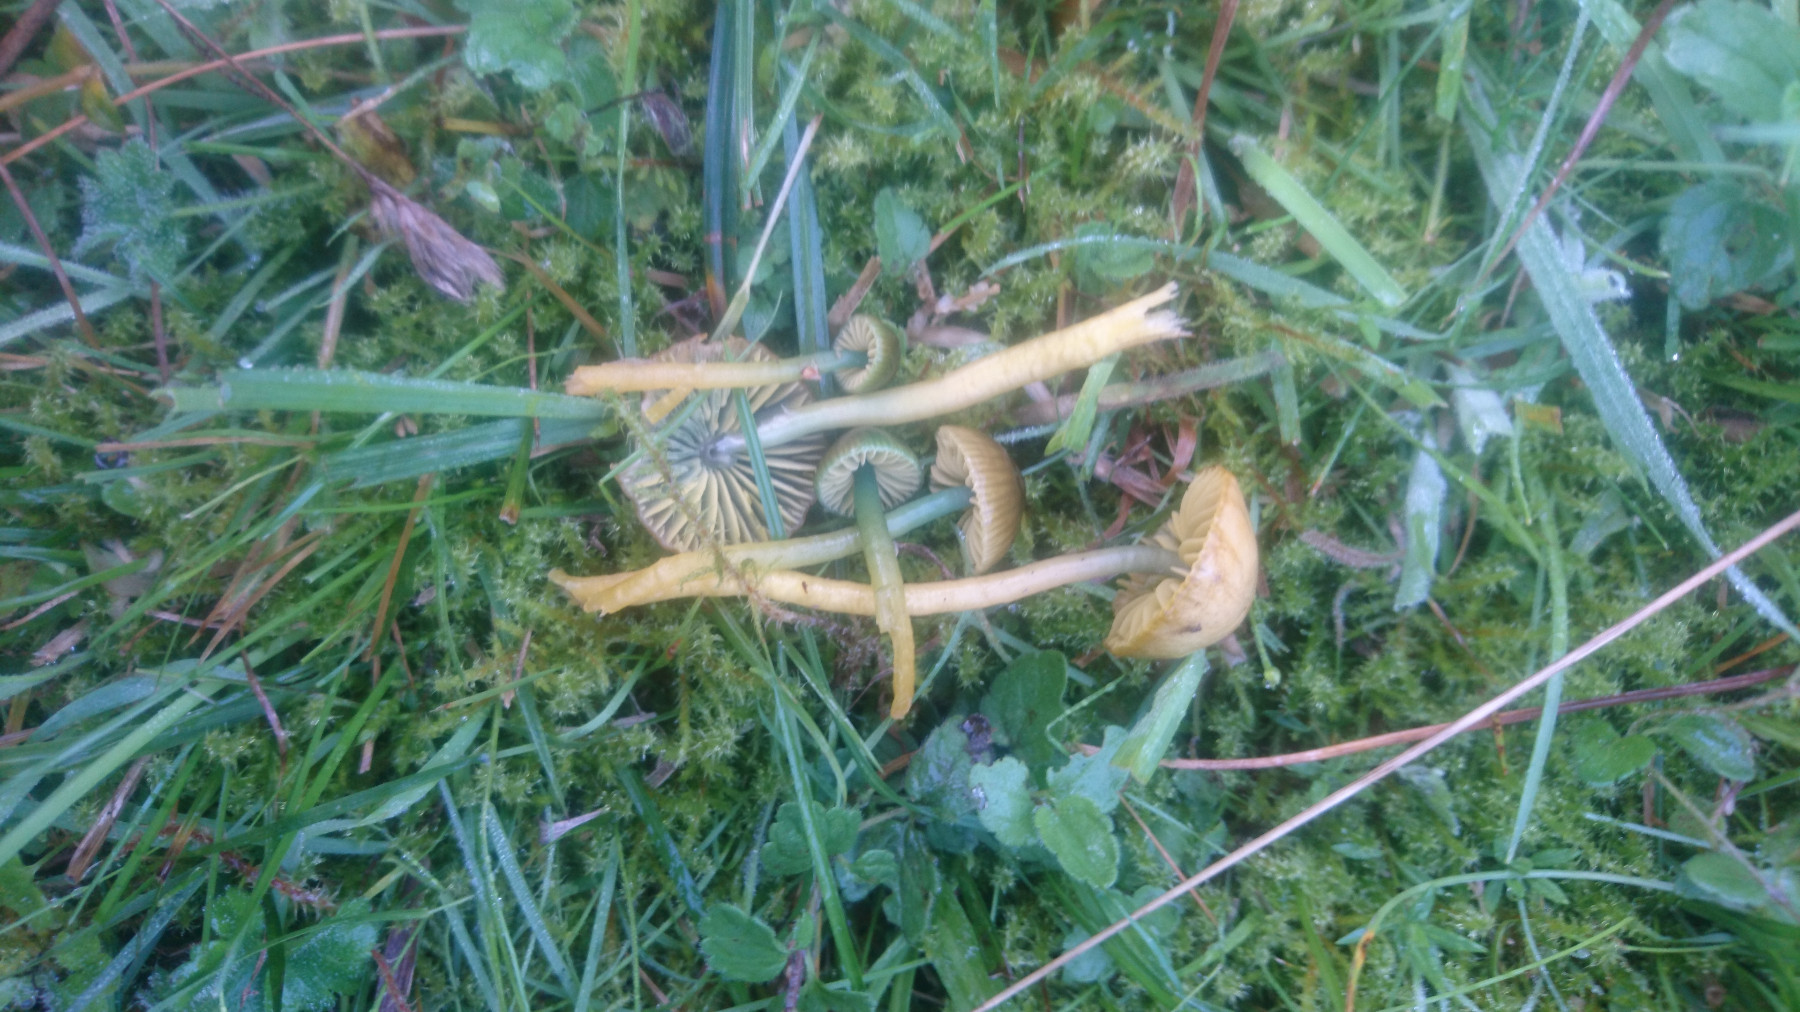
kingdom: Fungi
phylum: Basidiomycota
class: Agaricomycetes
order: Agaricales
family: Hygrophoraceae
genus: Gliophorus
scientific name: Gliophorus psittacinus
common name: papegøje-vokshat
